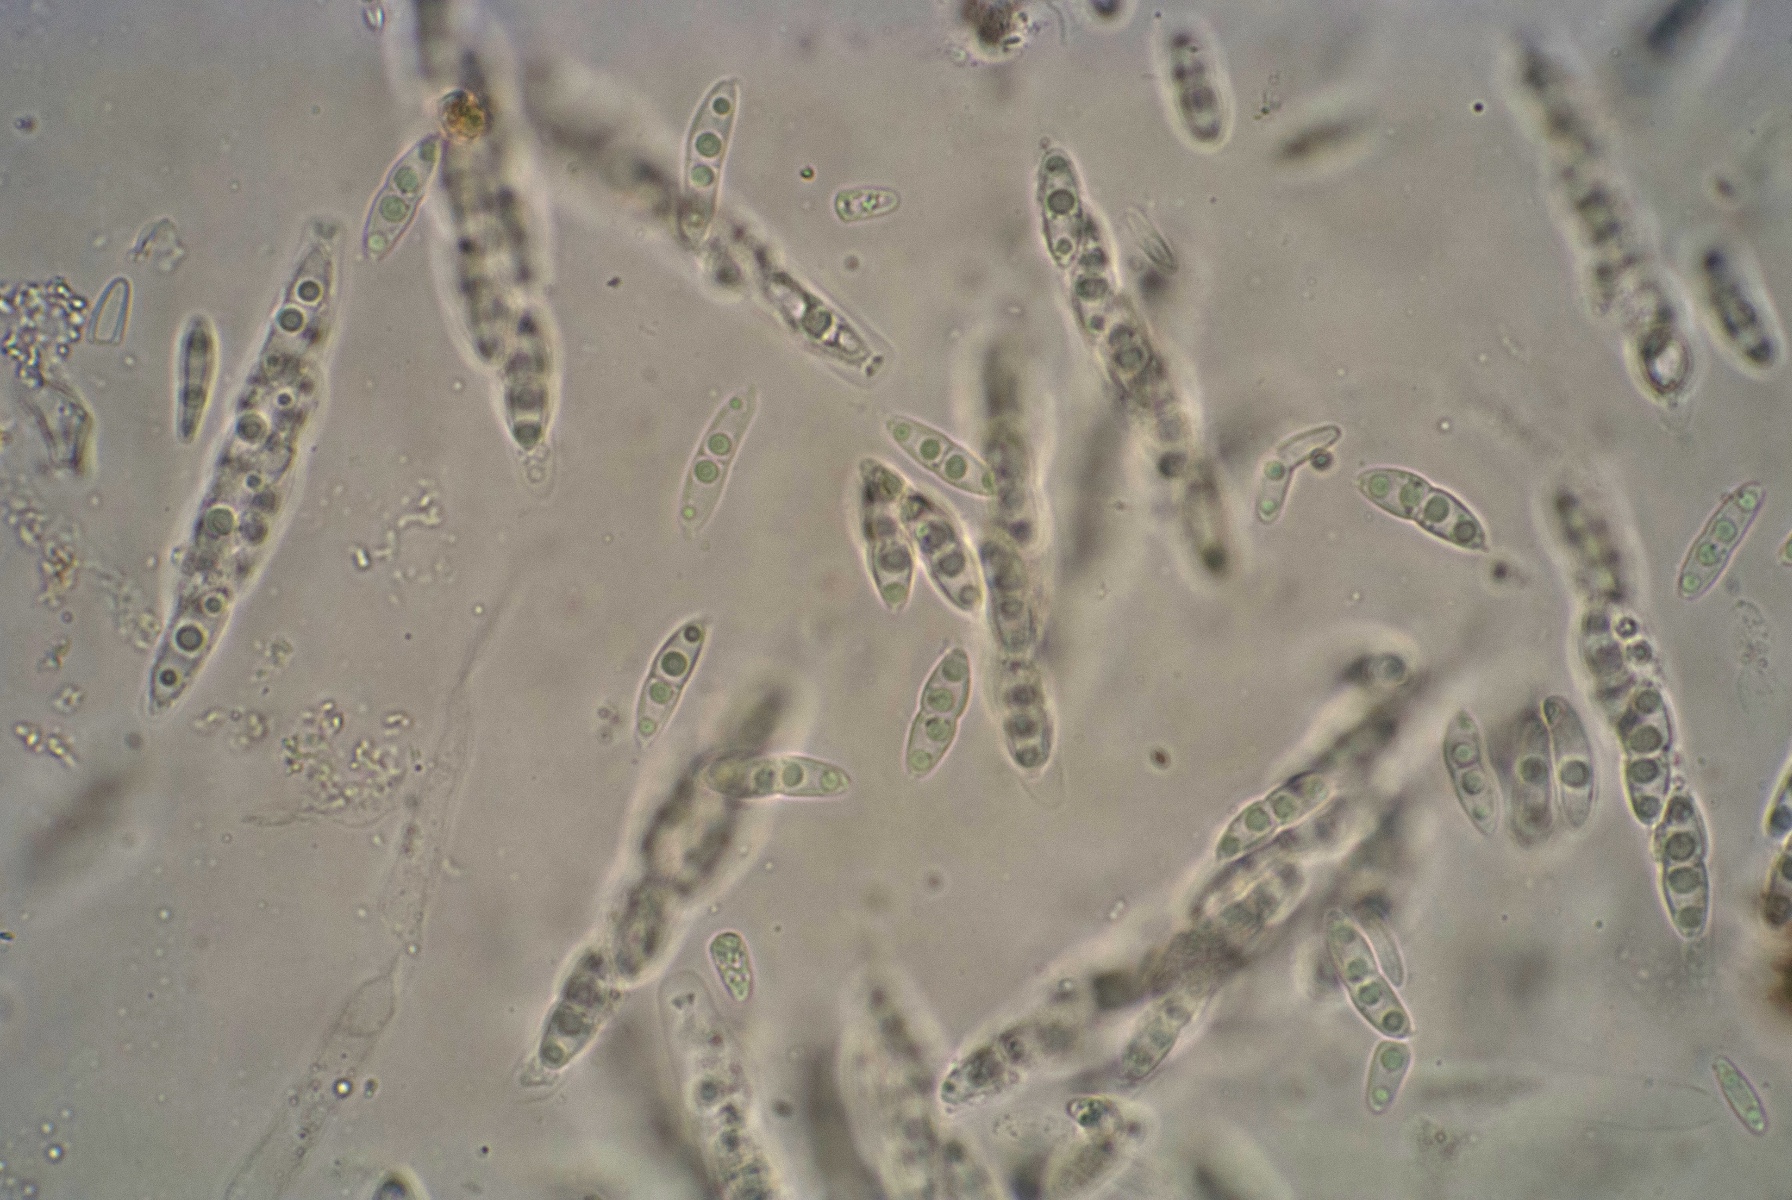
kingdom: Fungi
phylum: Ascomycota
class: Sordariomycetes
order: Diaporthales
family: Diaporthaceae
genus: Diaporthe
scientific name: Diaporthe beckhausii
